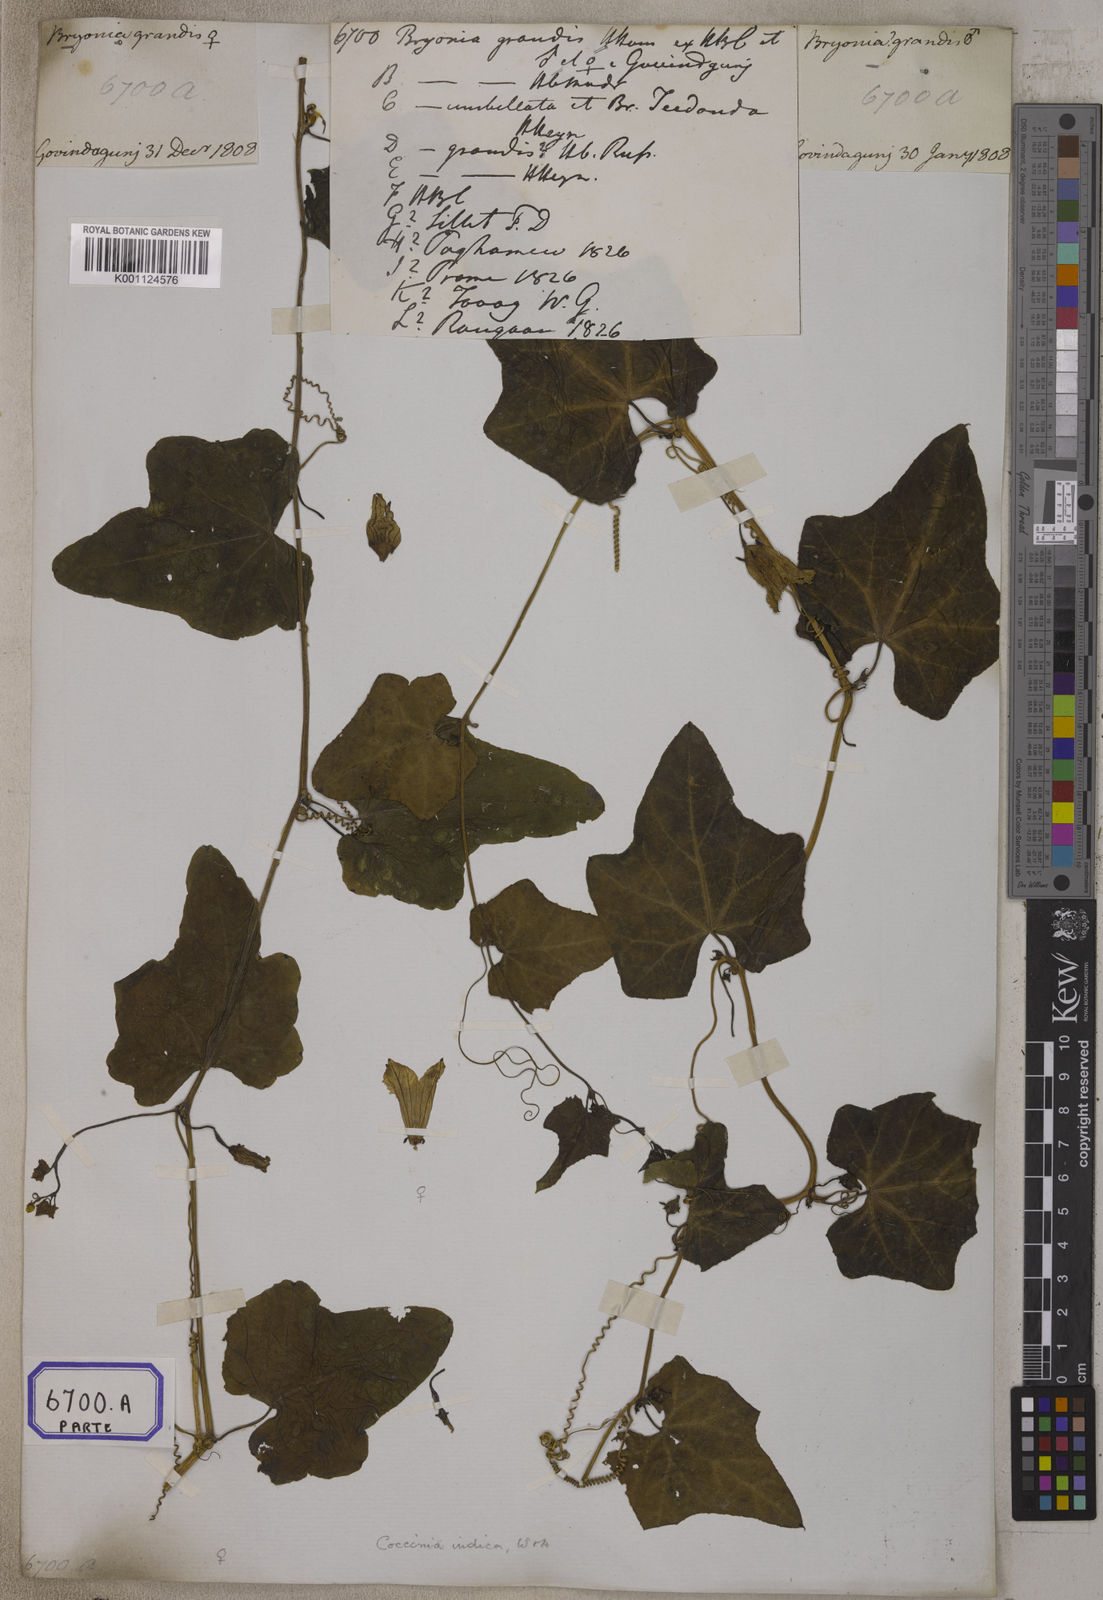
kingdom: Plantae
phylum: Tracheophyta
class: Magnoliopsida
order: Cucurbitales
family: Cucurbitaceae
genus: Bryonia
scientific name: Bryonia
